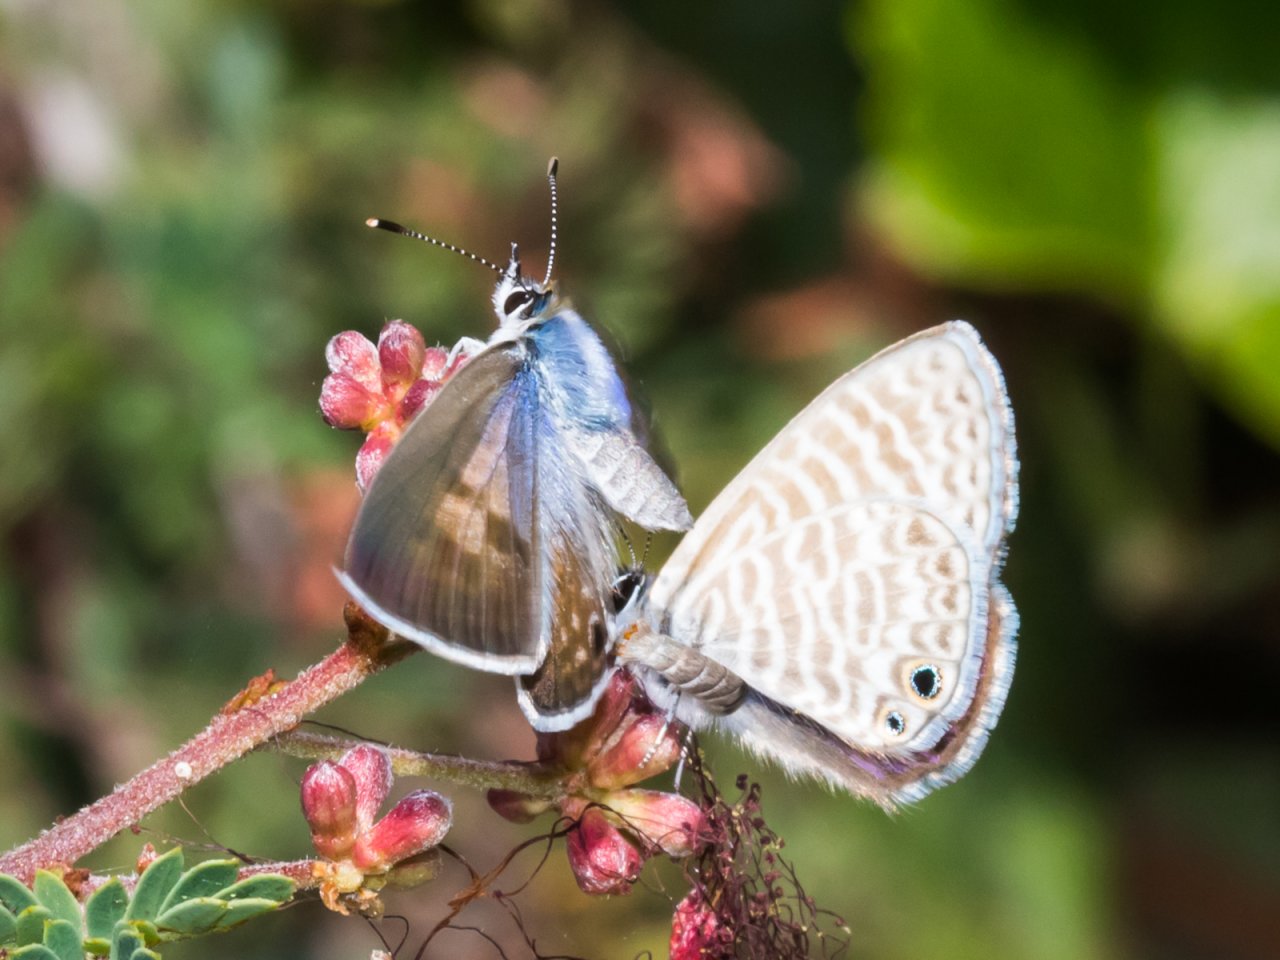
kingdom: Animalia
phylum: Arthropoda
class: Insecta
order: Lepidoptera
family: Lycaenidae
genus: Leptotes
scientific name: Leptotes marina
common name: Marine Blue
